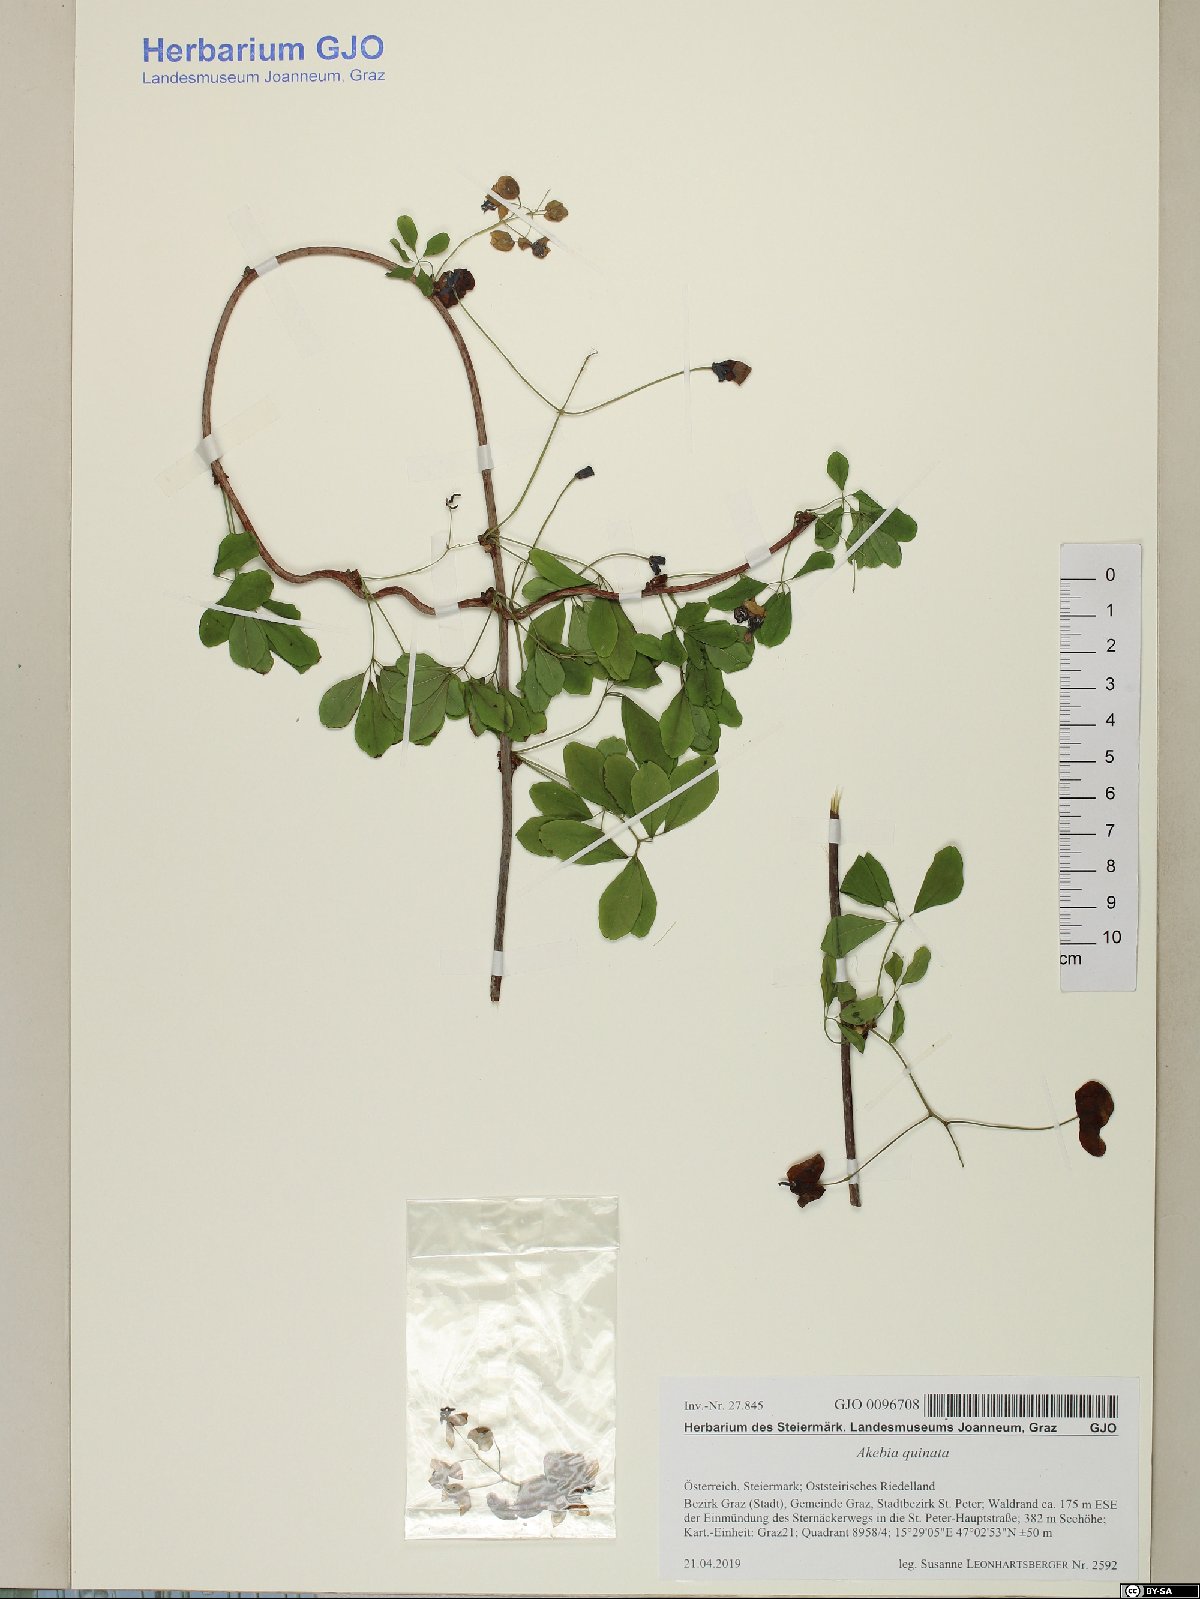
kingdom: Plantae
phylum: Tracheophyta
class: Magnoliopsida
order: Ranunculales
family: Lardizabalaceae
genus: Akebia
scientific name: Akebia quinata
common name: Five-leaf akebia
